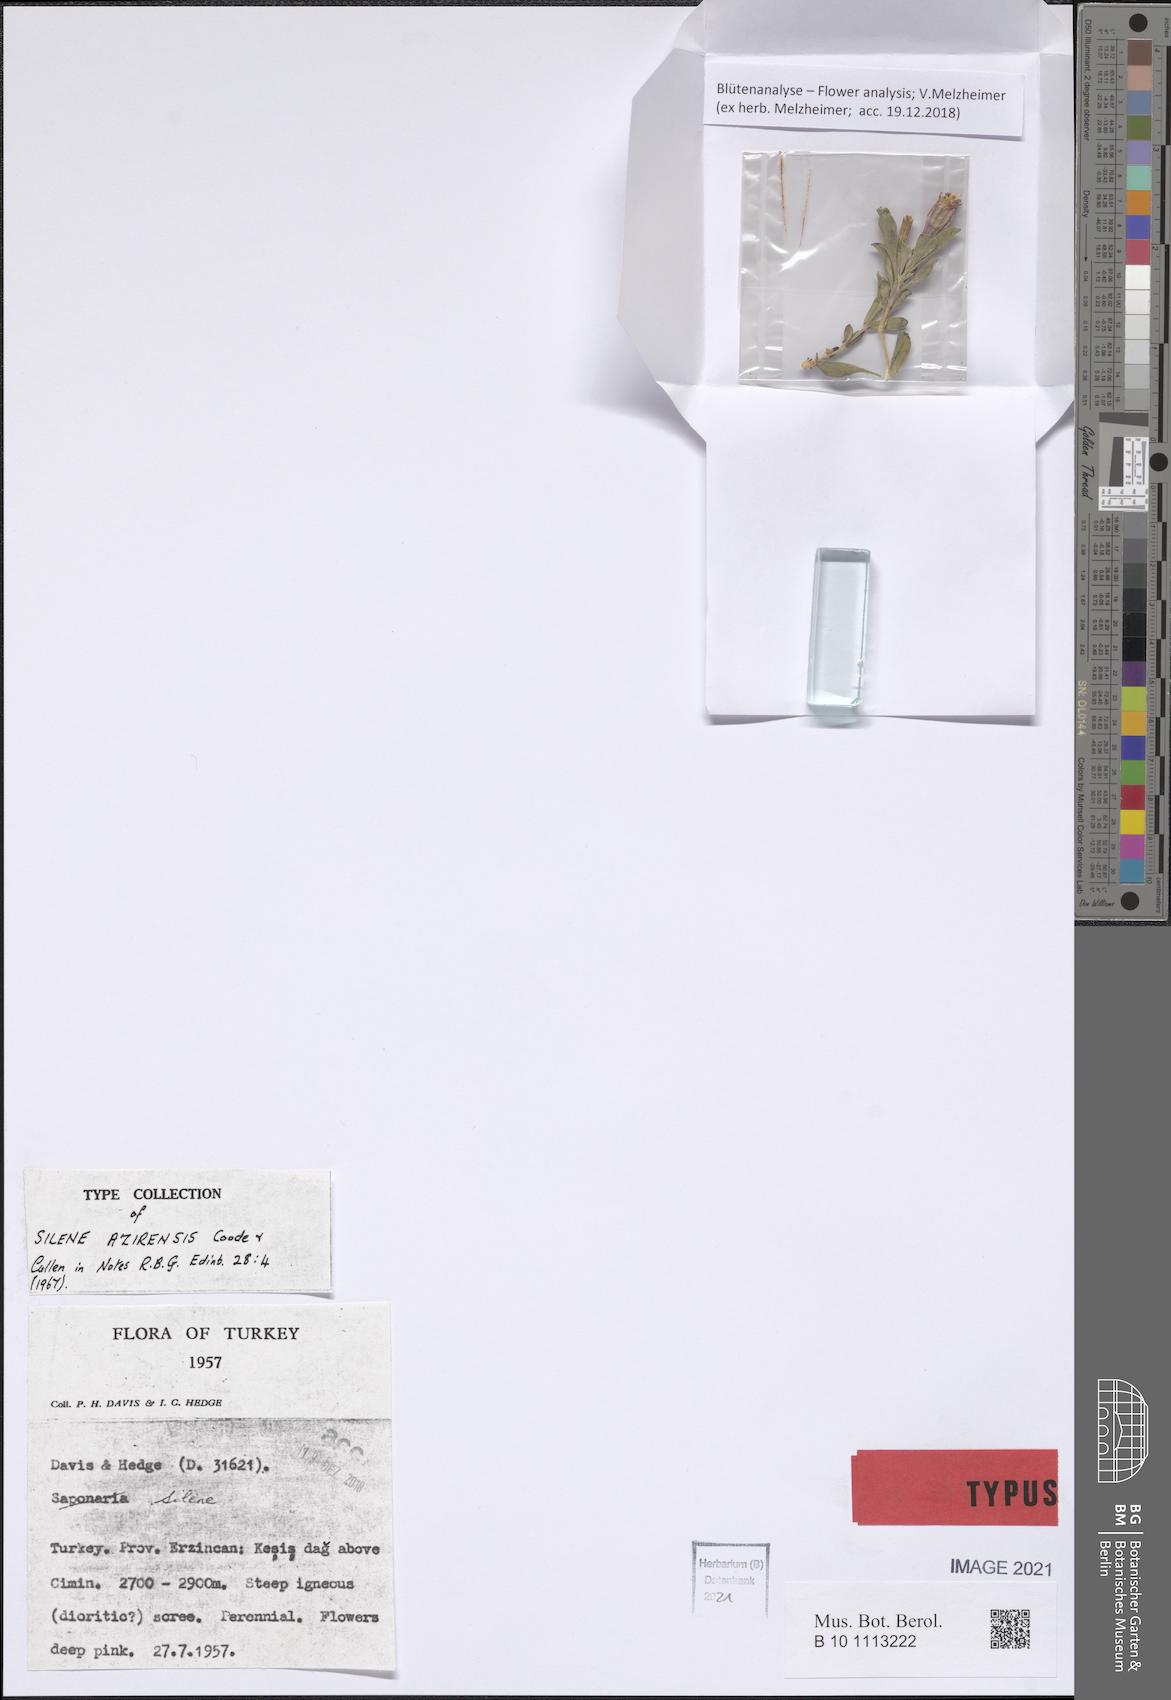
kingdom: Plantae
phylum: Tracheophyta
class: Magnoliopsida
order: Caryophyllales
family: Caryophyllaceae
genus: Silene
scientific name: Silene azirensis
